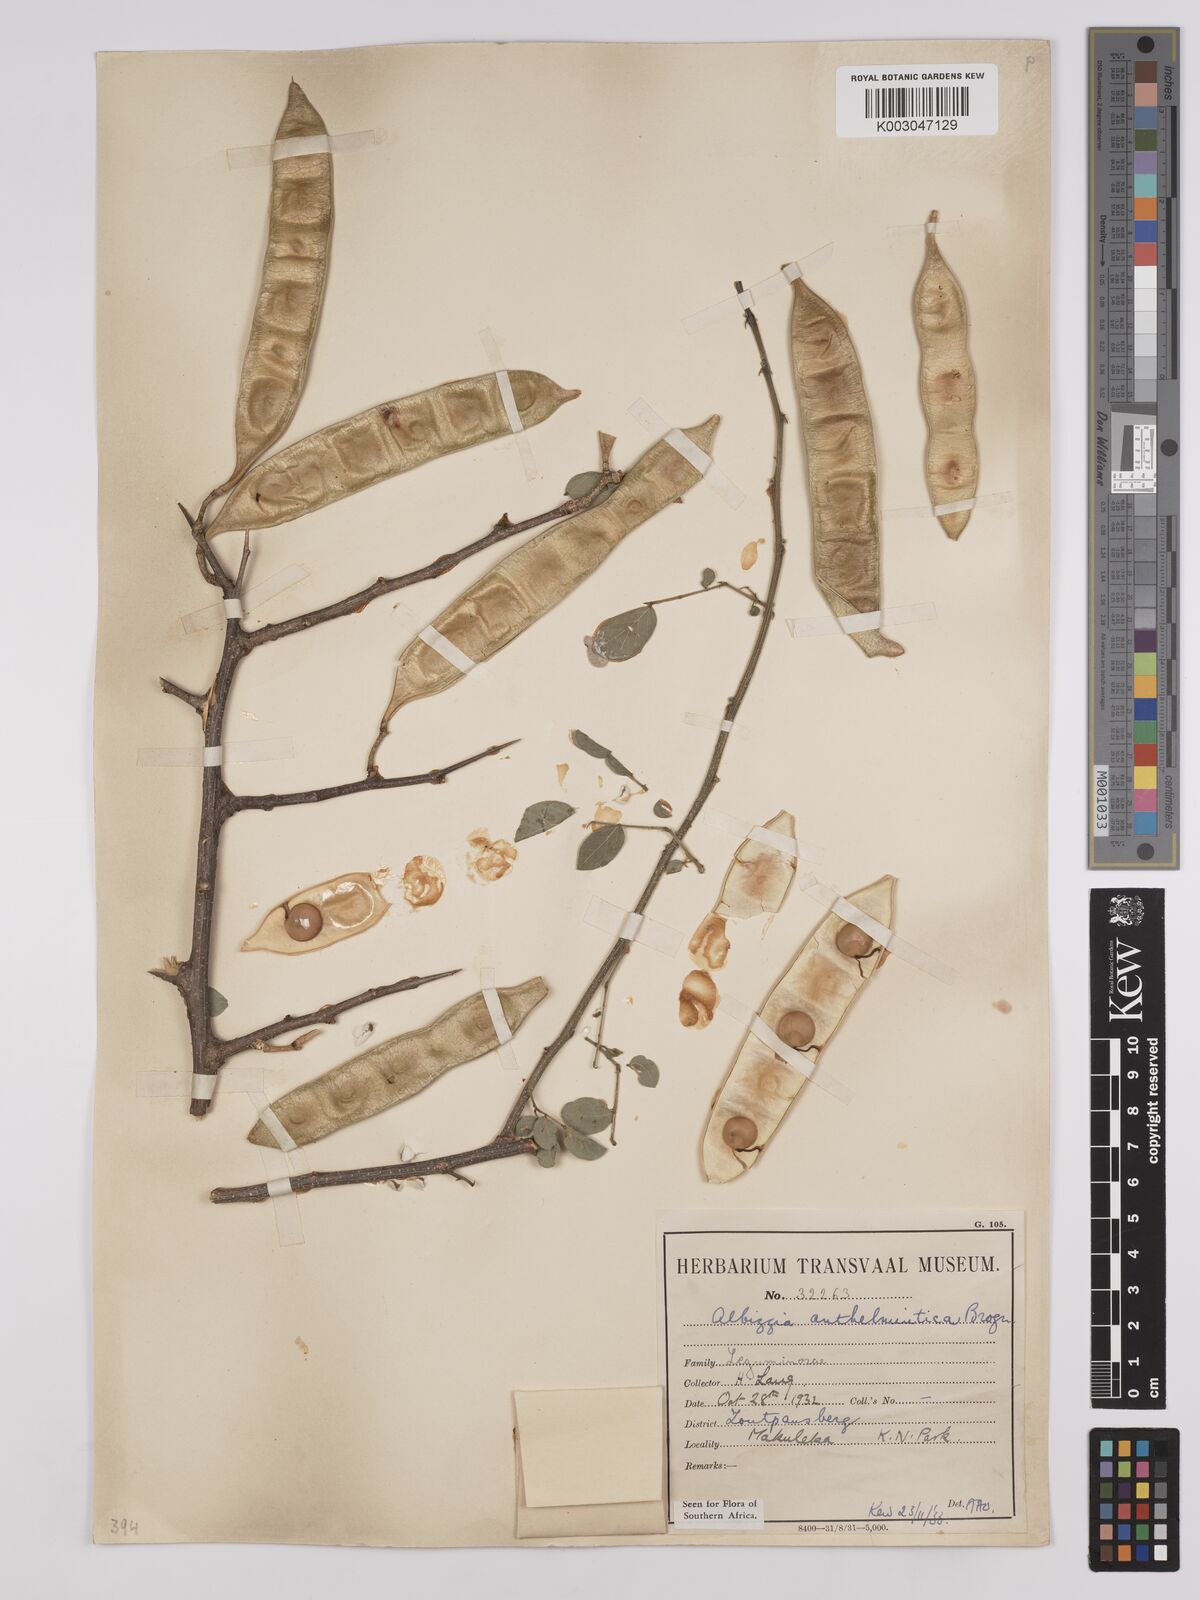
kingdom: Plantae
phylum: Tracheophyta
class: Magnoliopsida
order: Fabales
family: Fabaceae
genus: Albizia
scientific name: Albizia anthelmintica
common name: Worm-bark false-thorn
